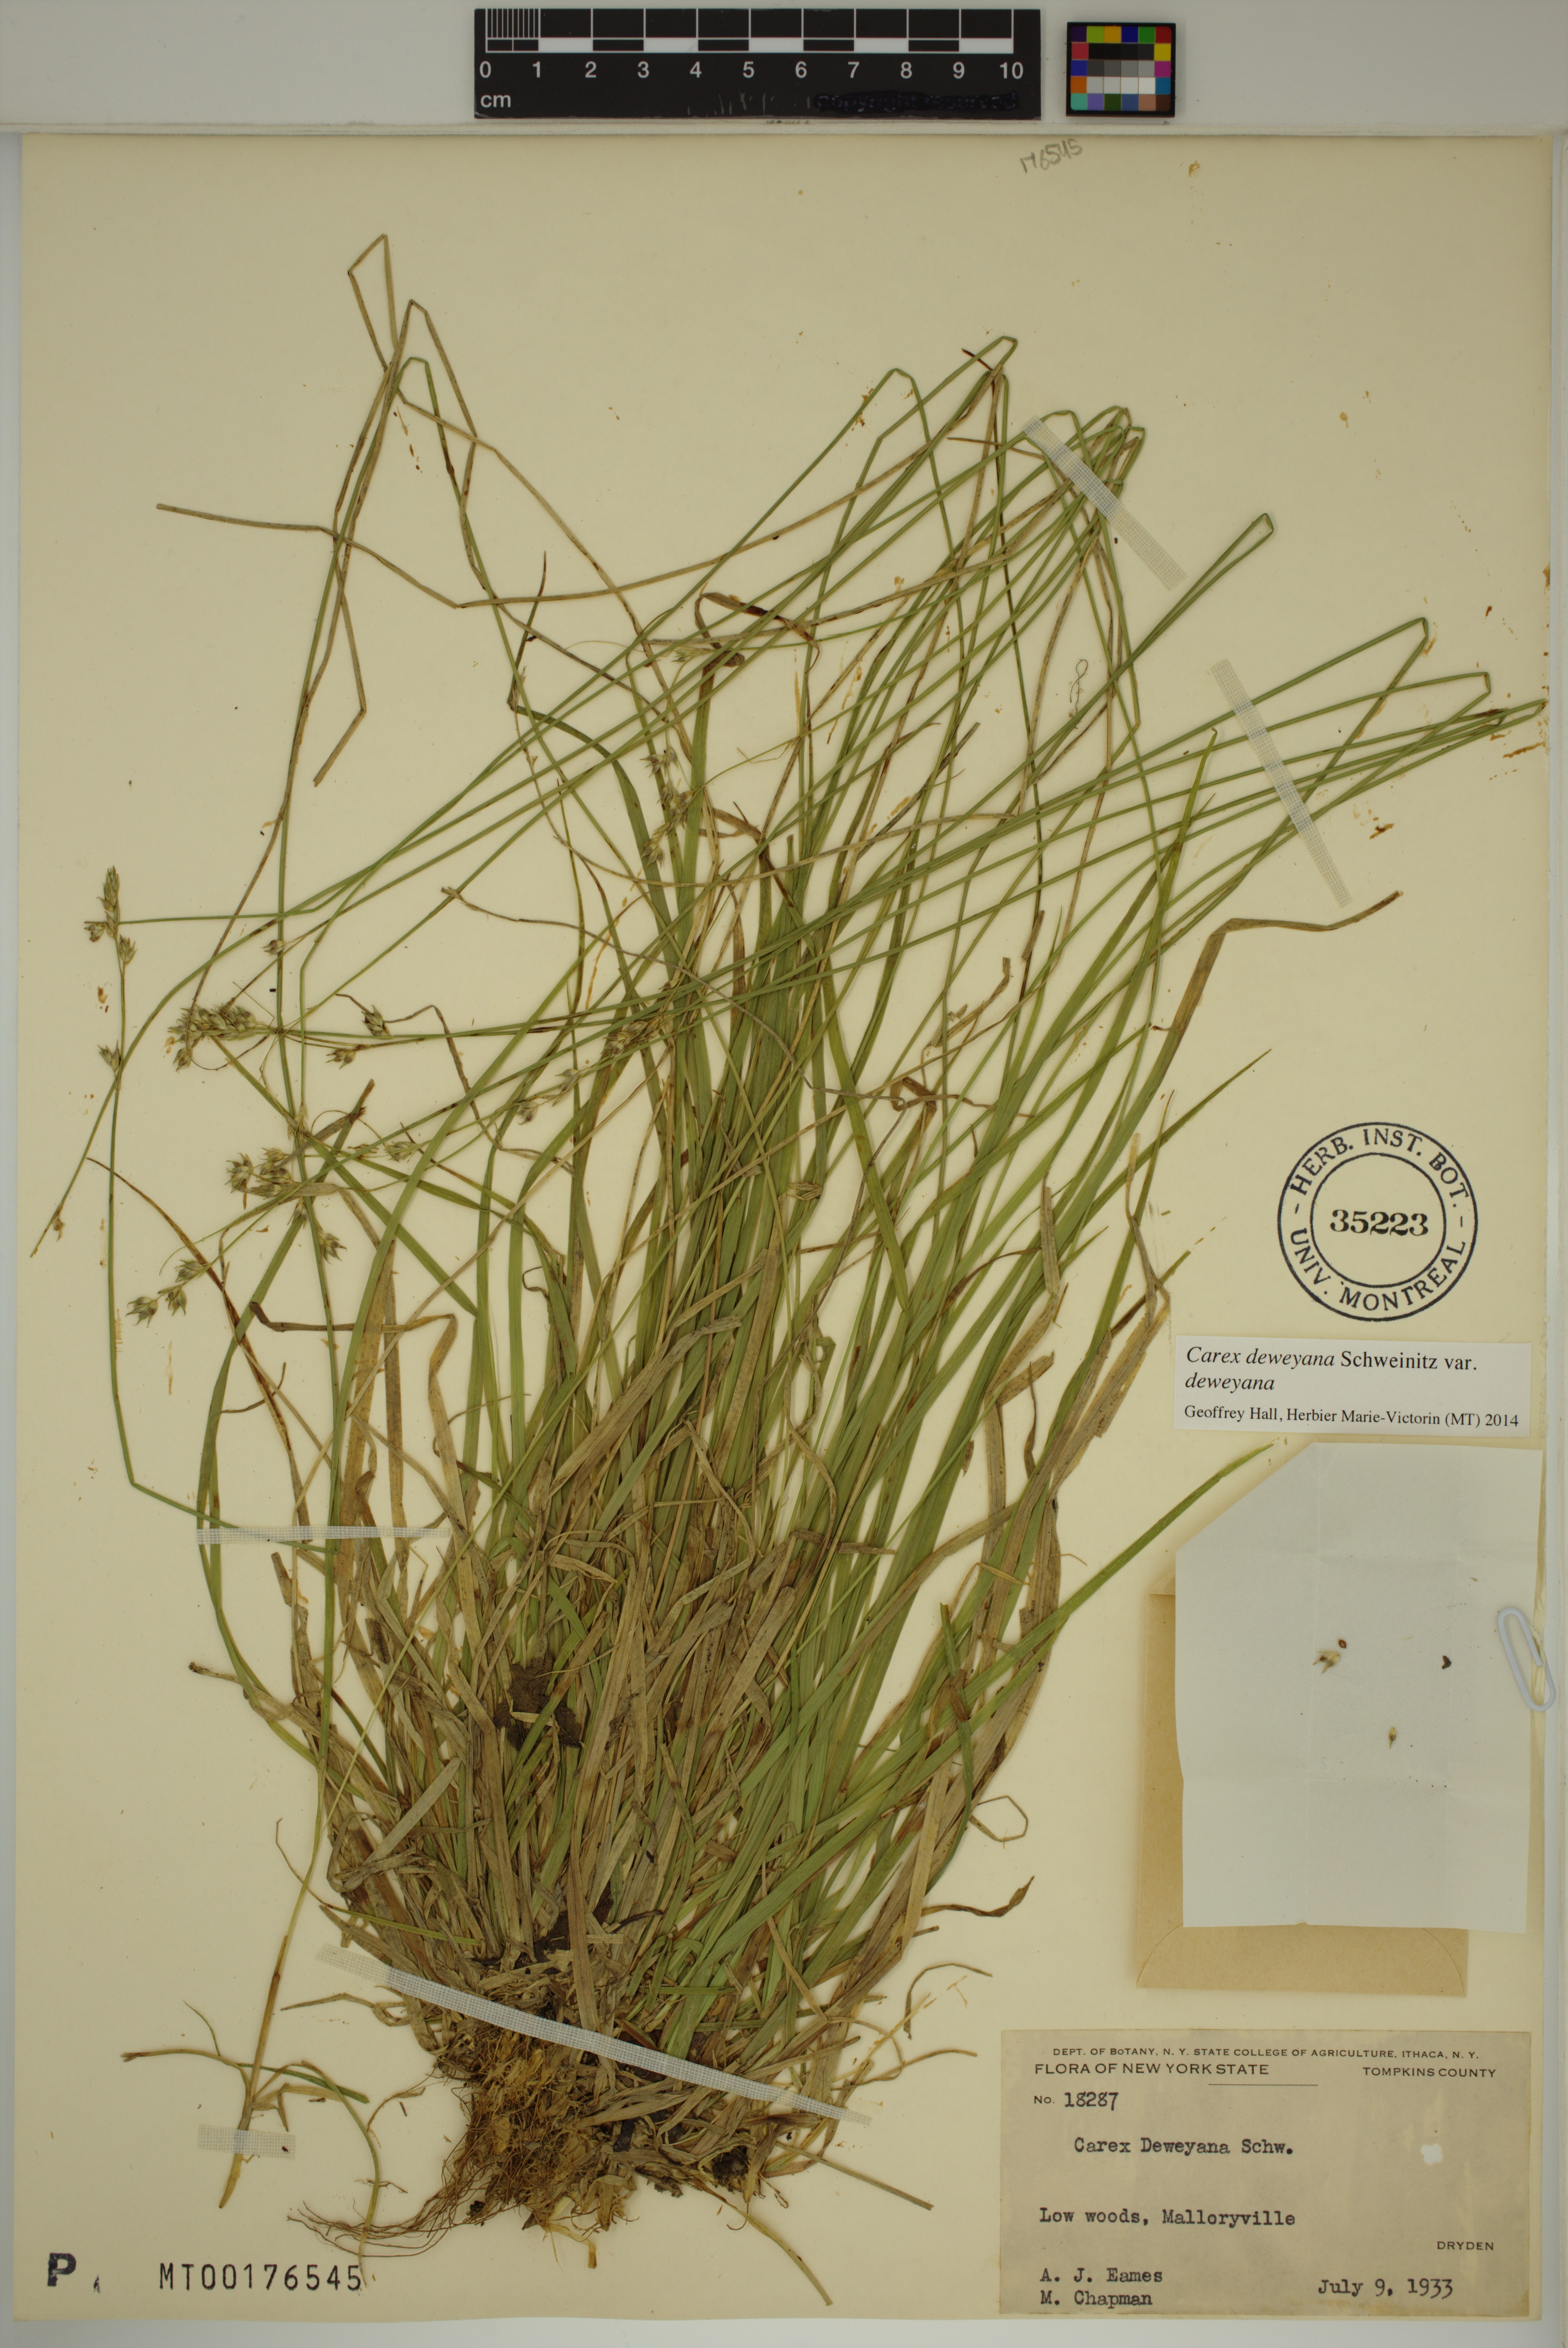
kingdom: Plantae
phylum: Tracheophyta
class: Liliopsida
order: Poales
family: Cyperaceae
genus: Carex
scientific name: Carex deweyana
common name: Dewey's sedge
